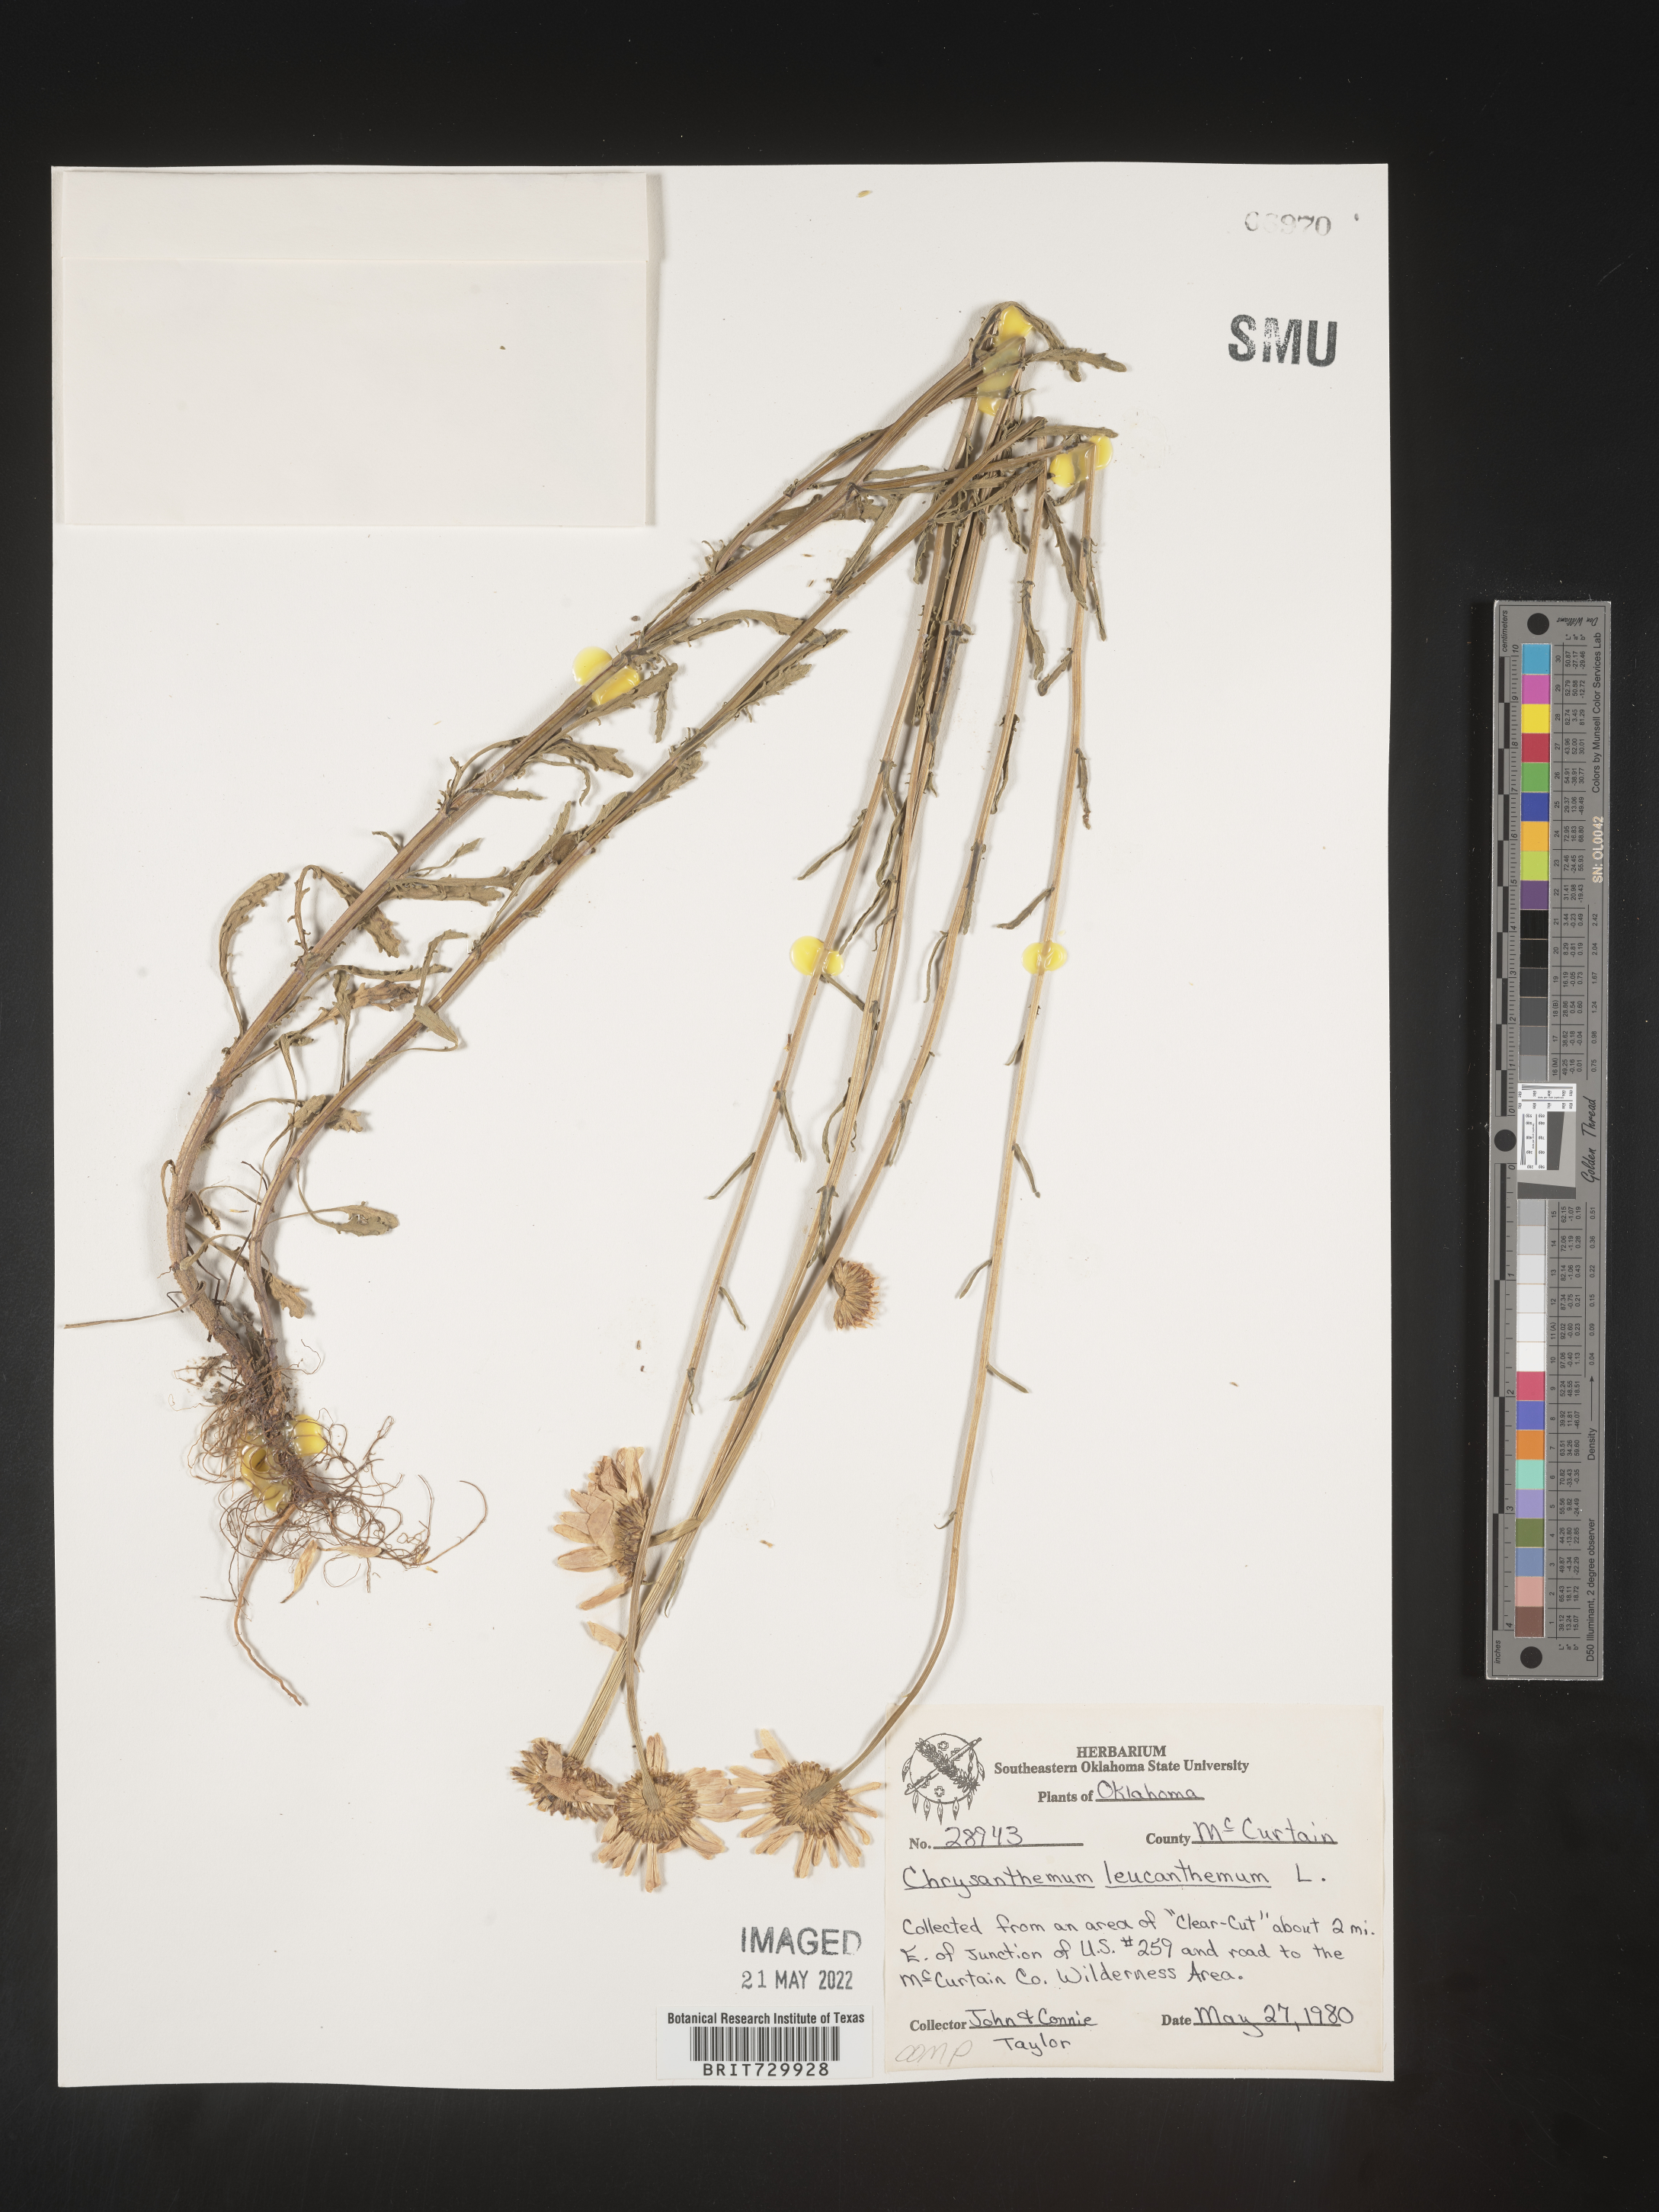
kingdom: Plantae
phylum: Tracheophyta
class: Magnoliopsida
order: Asterales
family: Asteraceae
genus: Leucanthemum
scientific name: Leucanthemum vulgare
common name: Oxeye daisy
